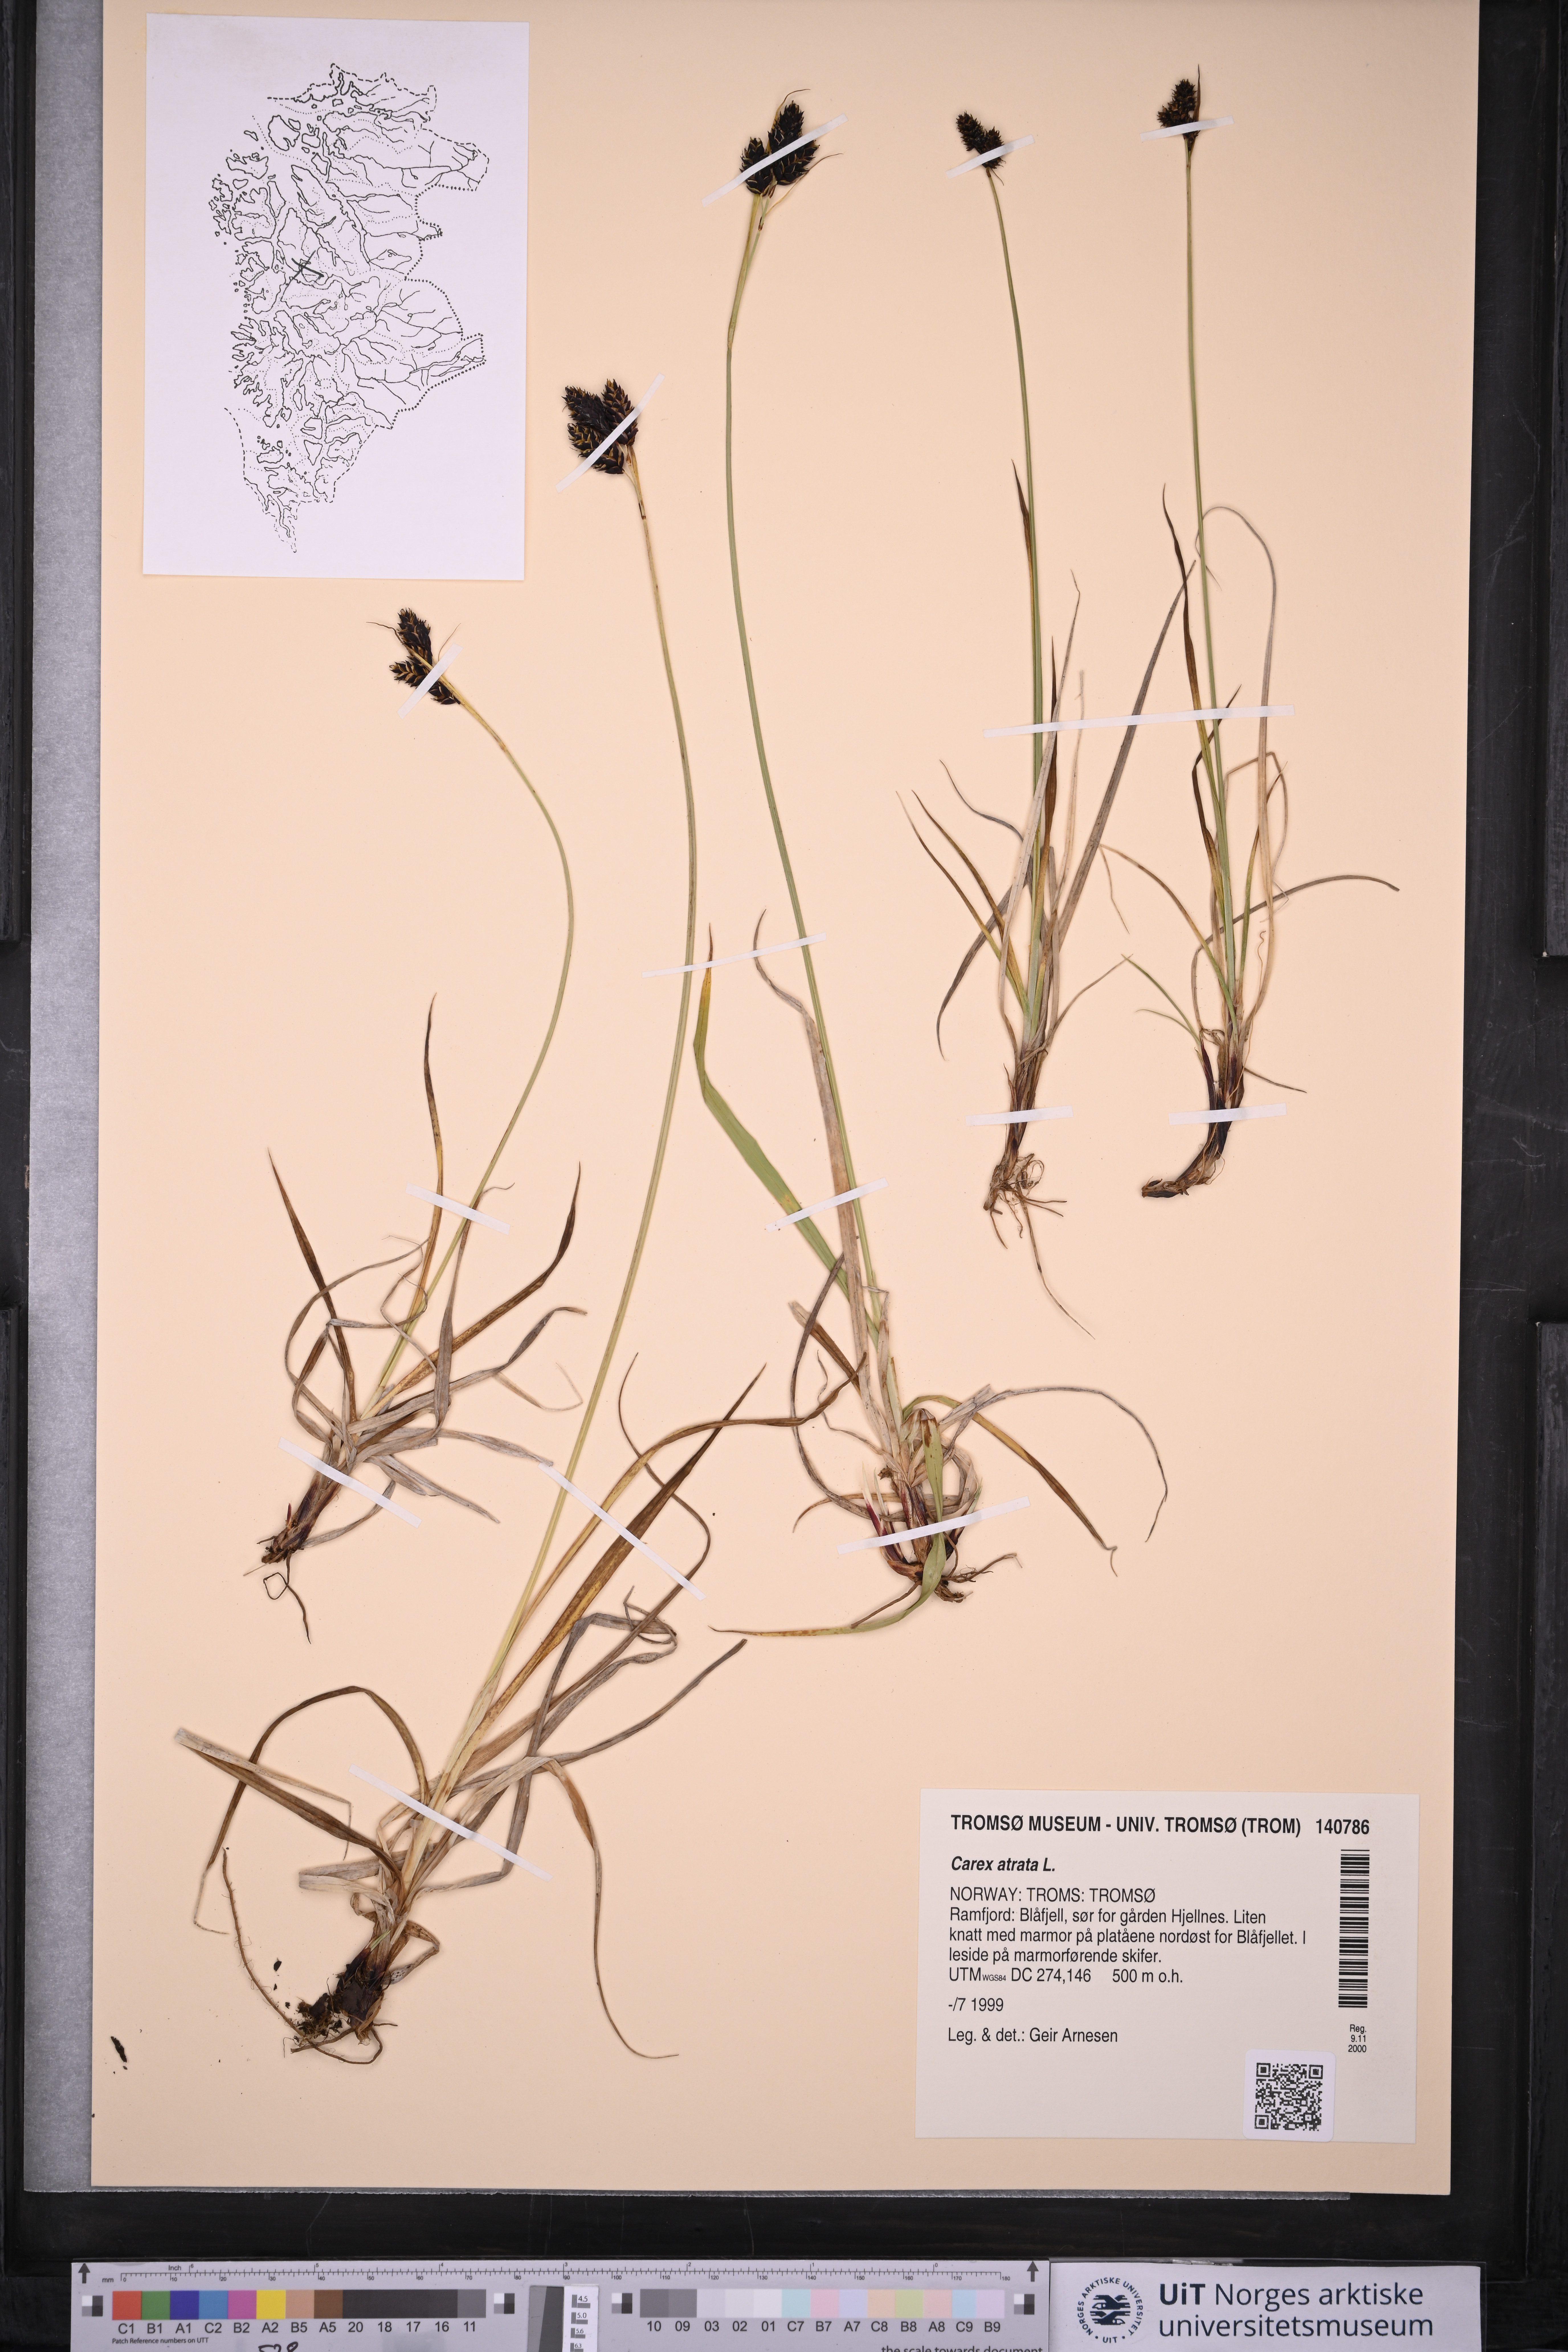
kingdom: Plantae
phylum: Tracheophyta
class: Liliopsida
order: Poales
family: Cyperaceae
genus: Carex
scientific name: Carex atrata
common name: Black alpine sedge
